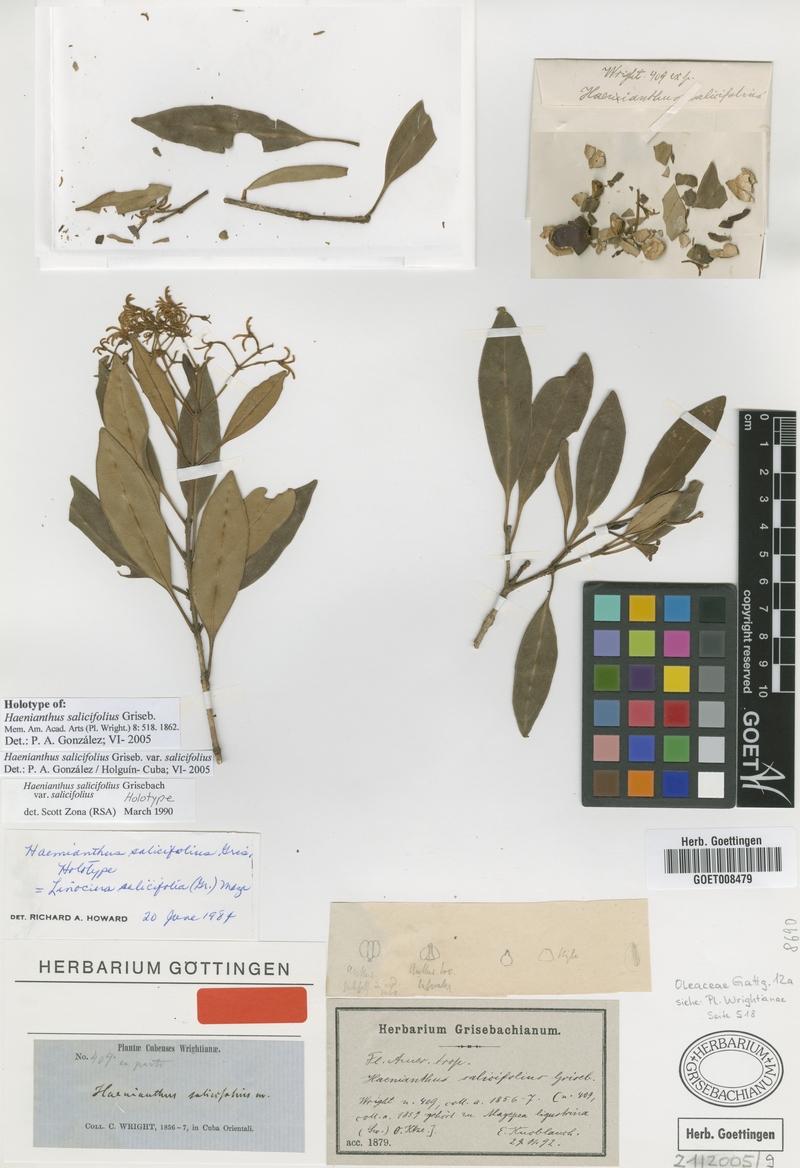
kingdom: Plantae
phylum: Tracheophyta
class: Magnoliopsida
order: Lamiales
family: Oleaceae
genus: Haenianthus
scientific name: Haenianthus salicifolius
